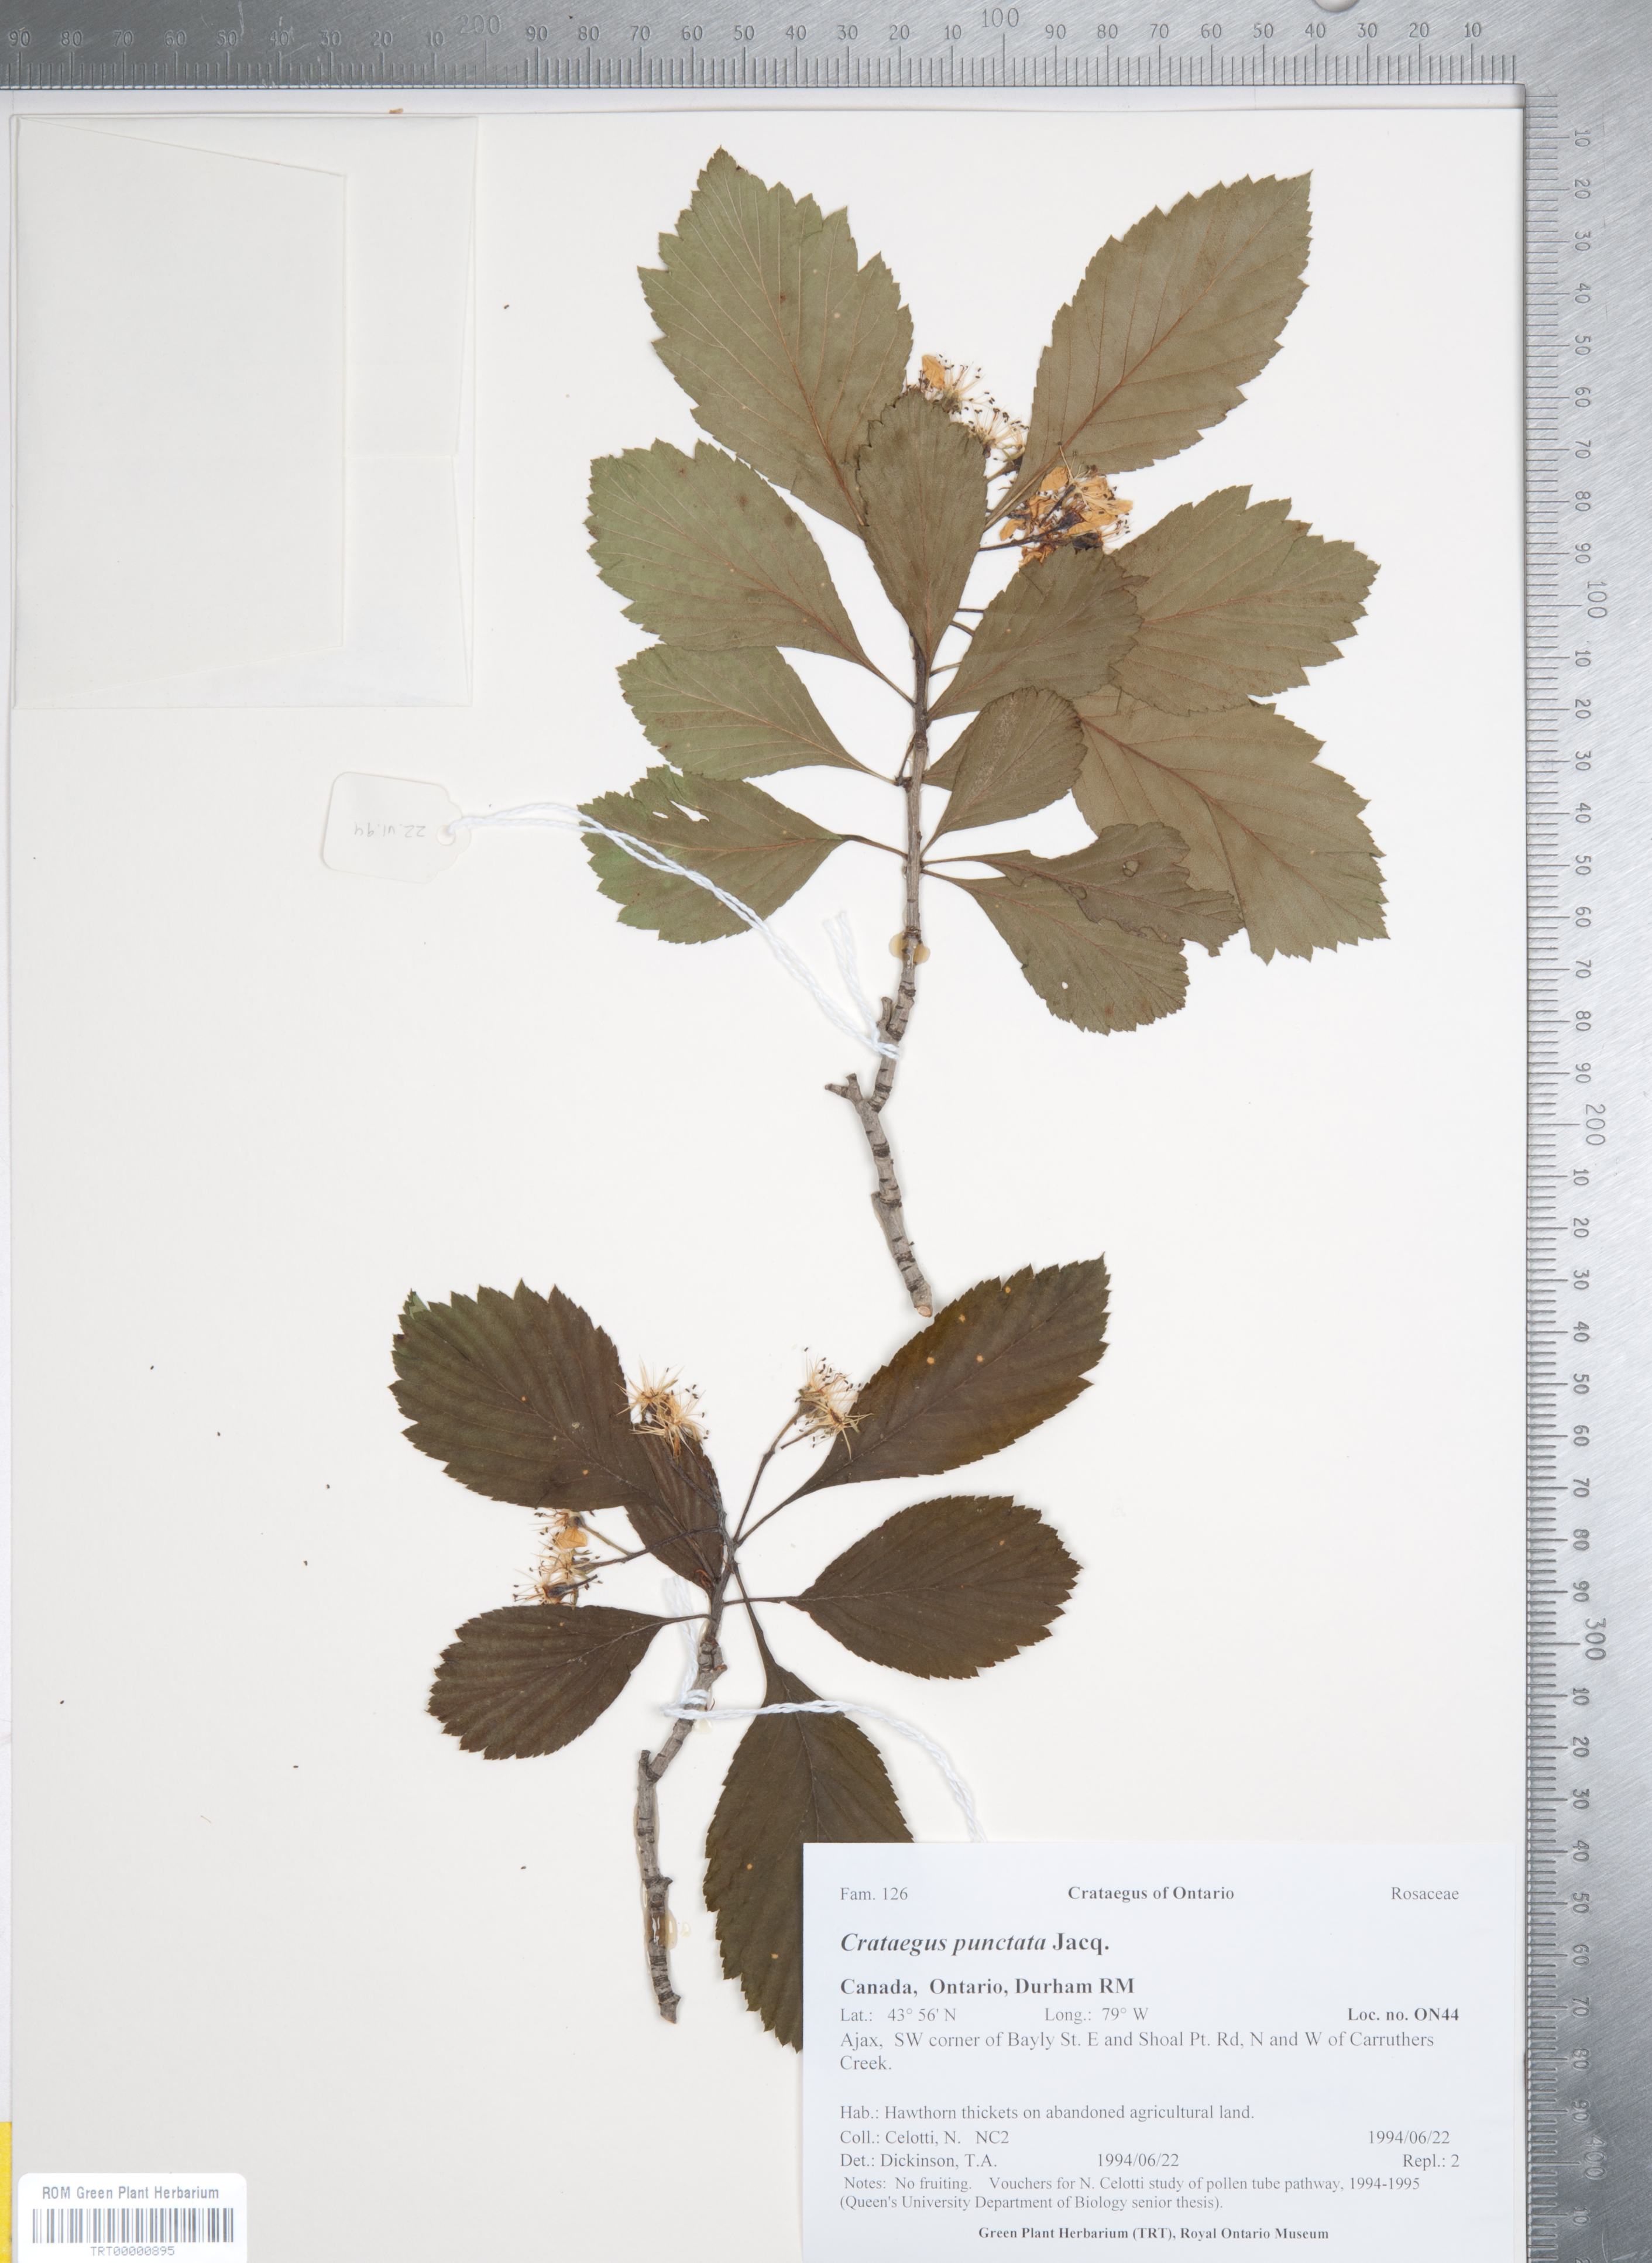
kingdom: Plantae
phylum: Tracheophyta
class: Magnoliopsida
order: Rosales
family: Rosaceae
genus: Crataegus
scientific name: Crataegus punctata
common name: Dotted hawthorn
